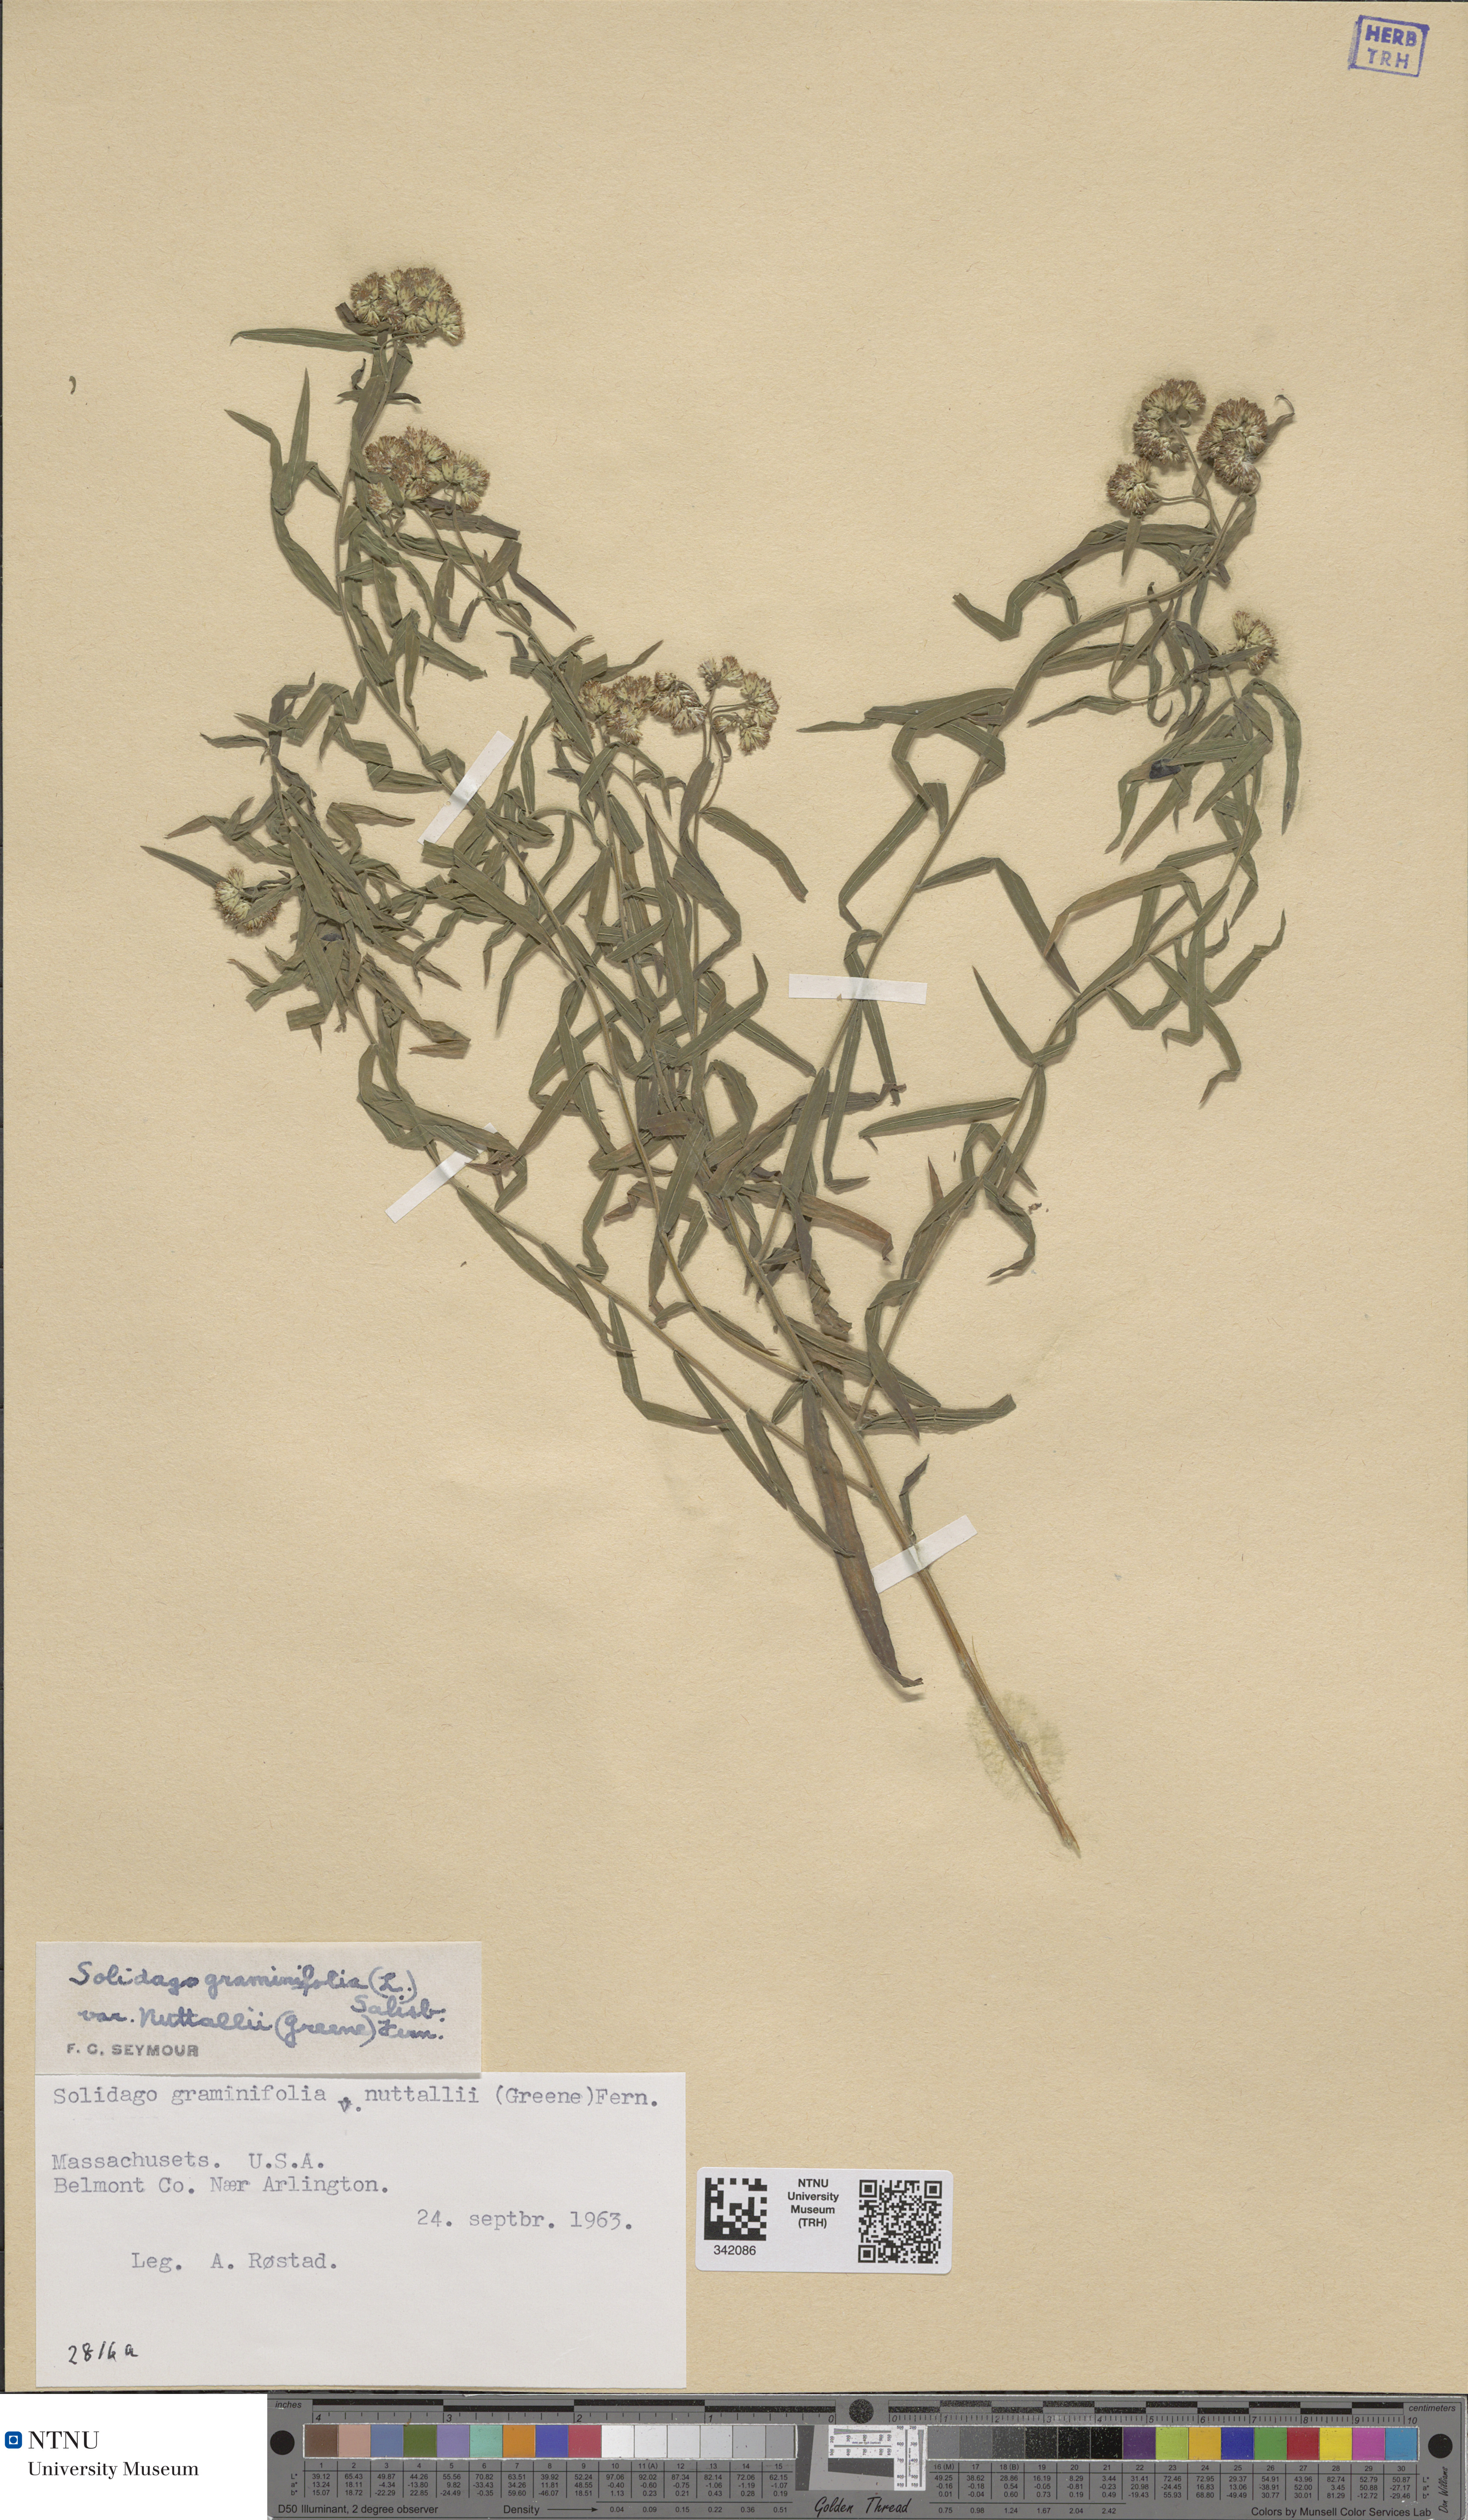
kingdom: Plantae
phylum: Tracheophyta
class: Magnoliopsida
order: Asterales
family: Asteraceae
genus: Euthamia
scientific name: Euthamia graminifolia
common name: Common goldentop
